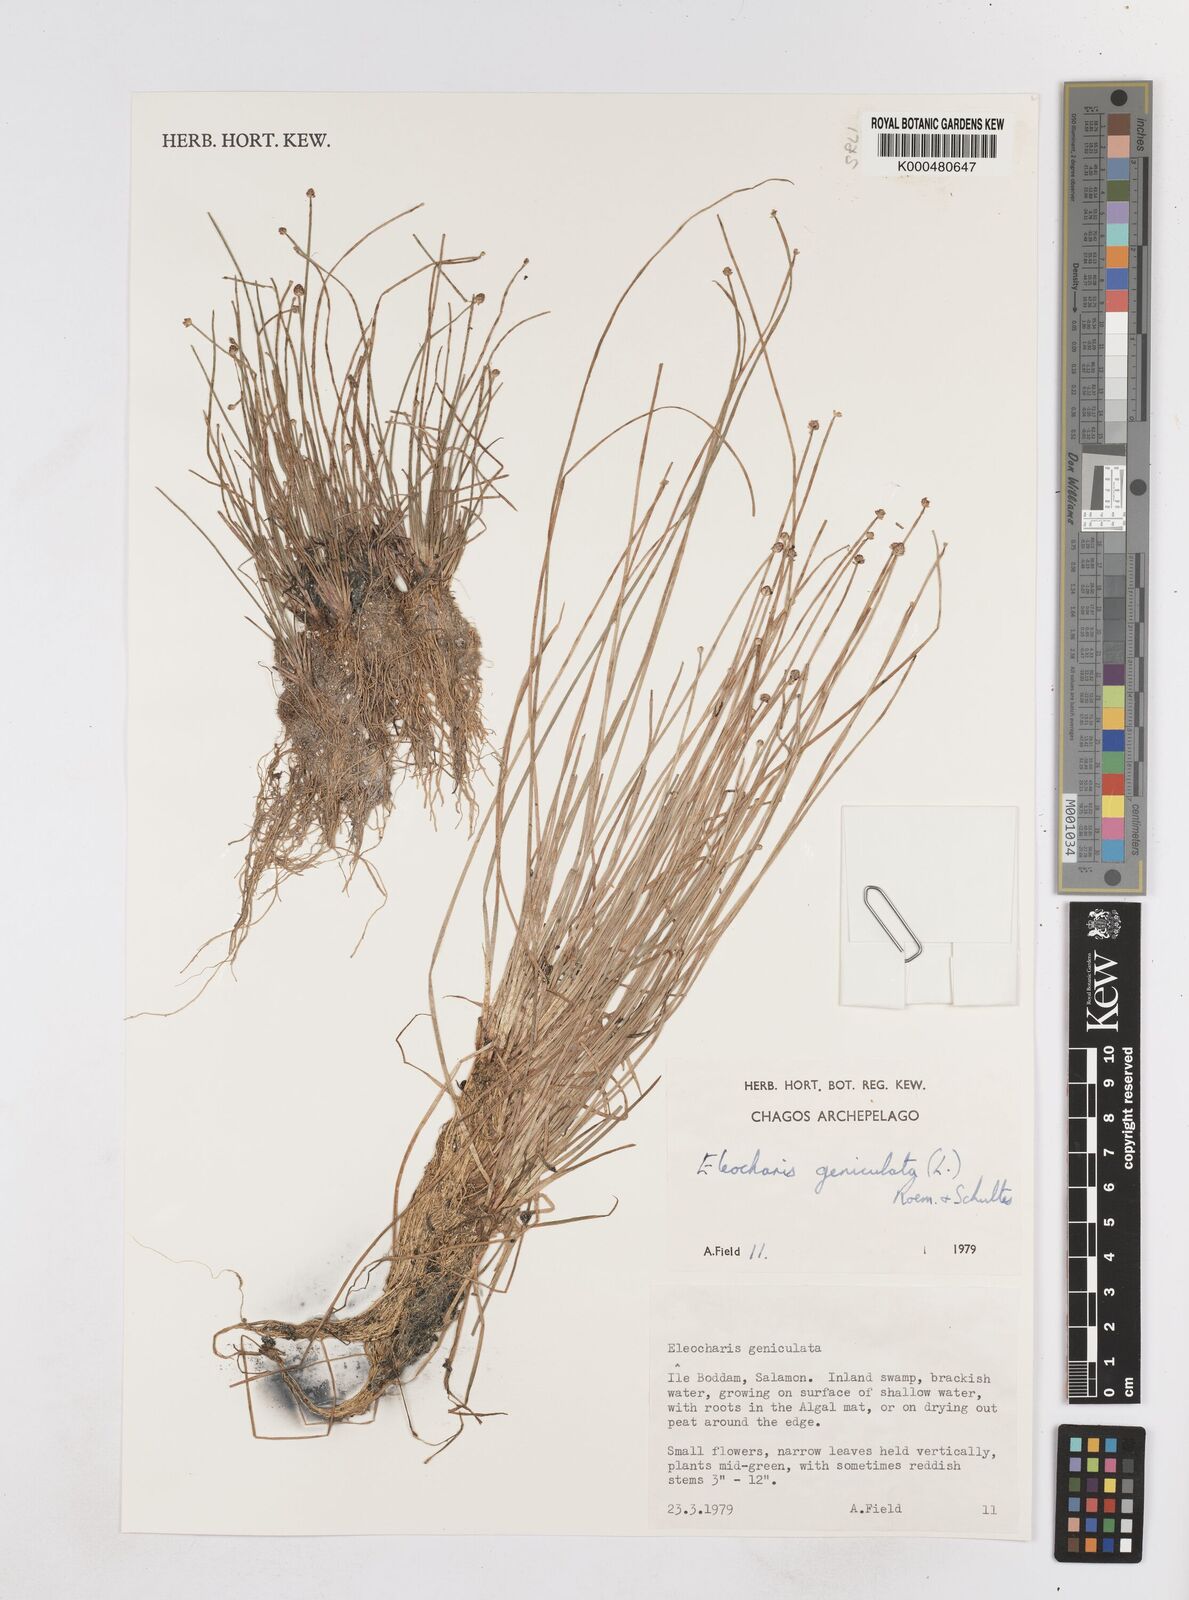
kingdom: Plantae
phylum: Tracheophyta
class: Liliopsida
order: Poales
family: Cyperaceae
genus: Eleocharis
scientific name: Eleocharis geniculata
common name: Canada spikesedge
